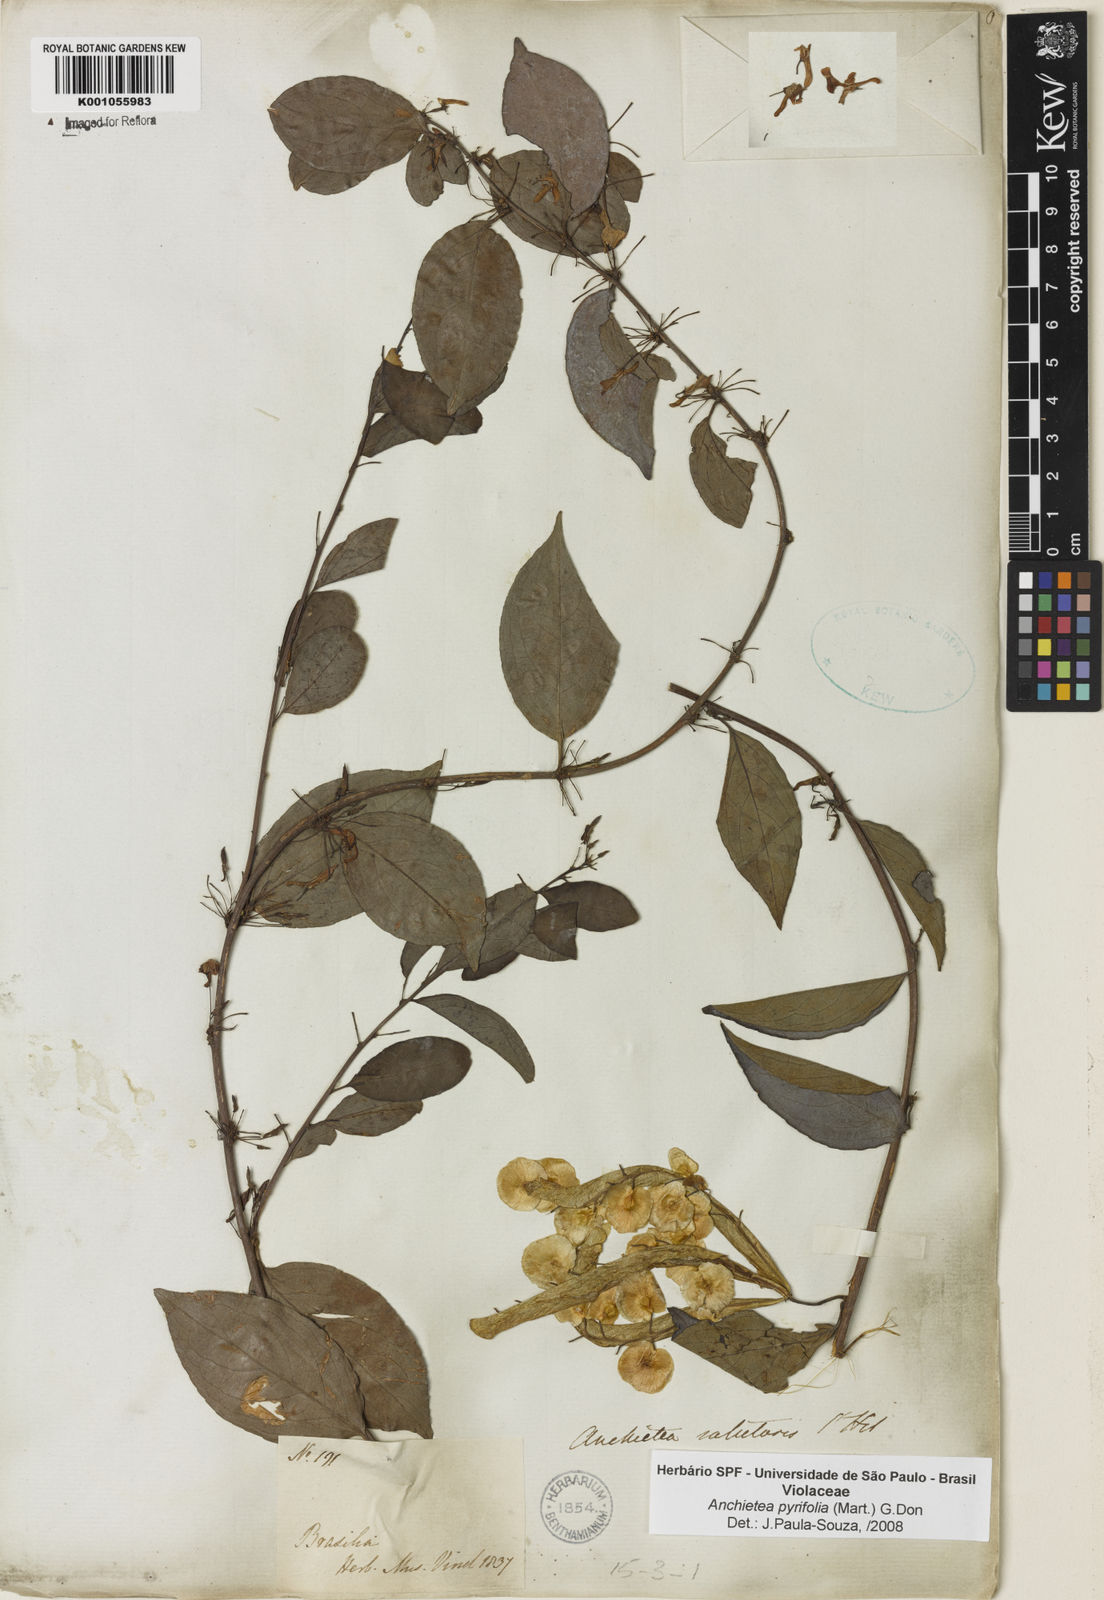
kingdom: Plantae
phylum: Tracheophyta
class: Magnoliopsida
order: Malpighiales
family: Violaceae
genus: Anchietea
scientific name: Anchietea pyrifolia
